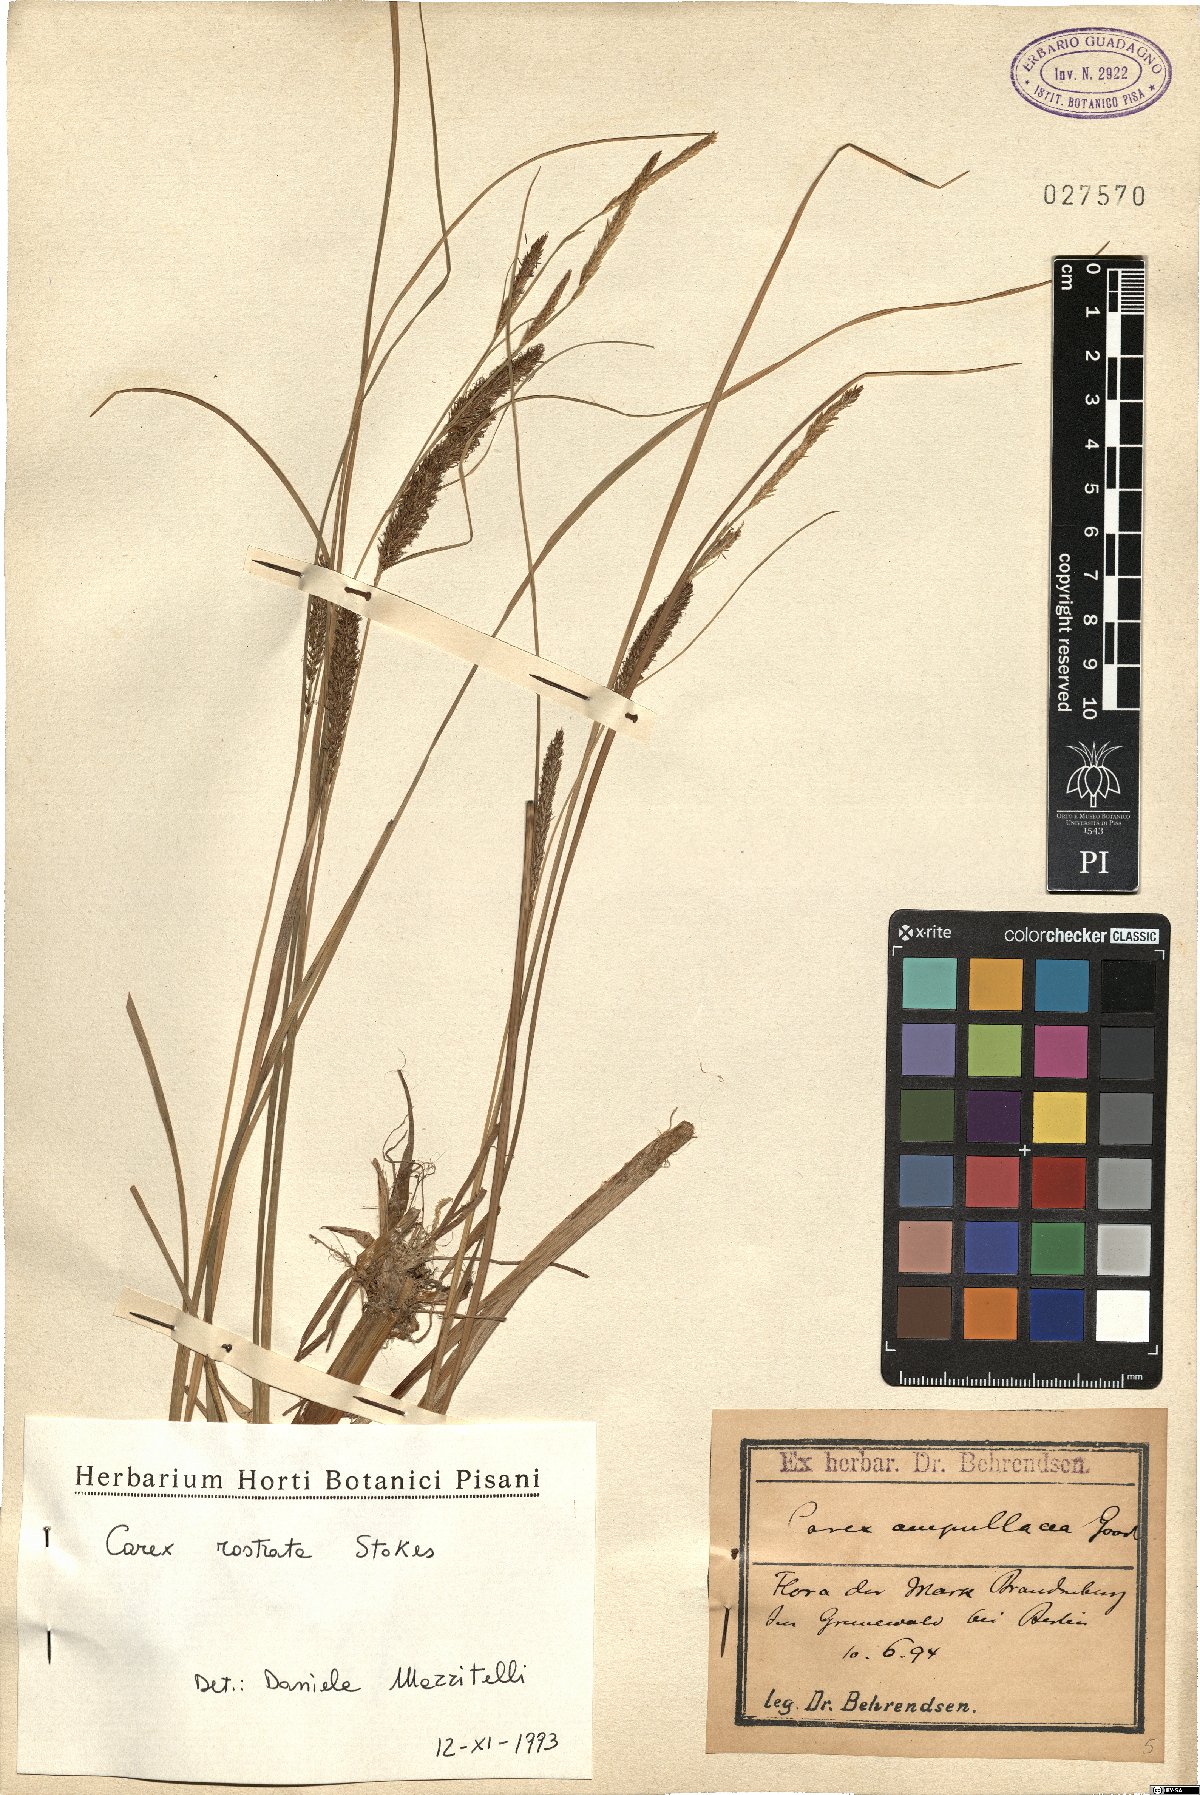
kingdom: Plantae
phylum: Tracheophyta
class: Liliopsida
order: Poales
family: Cyperaceae
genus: Carex
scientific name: Carex rostrata
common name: Bottle sedge
